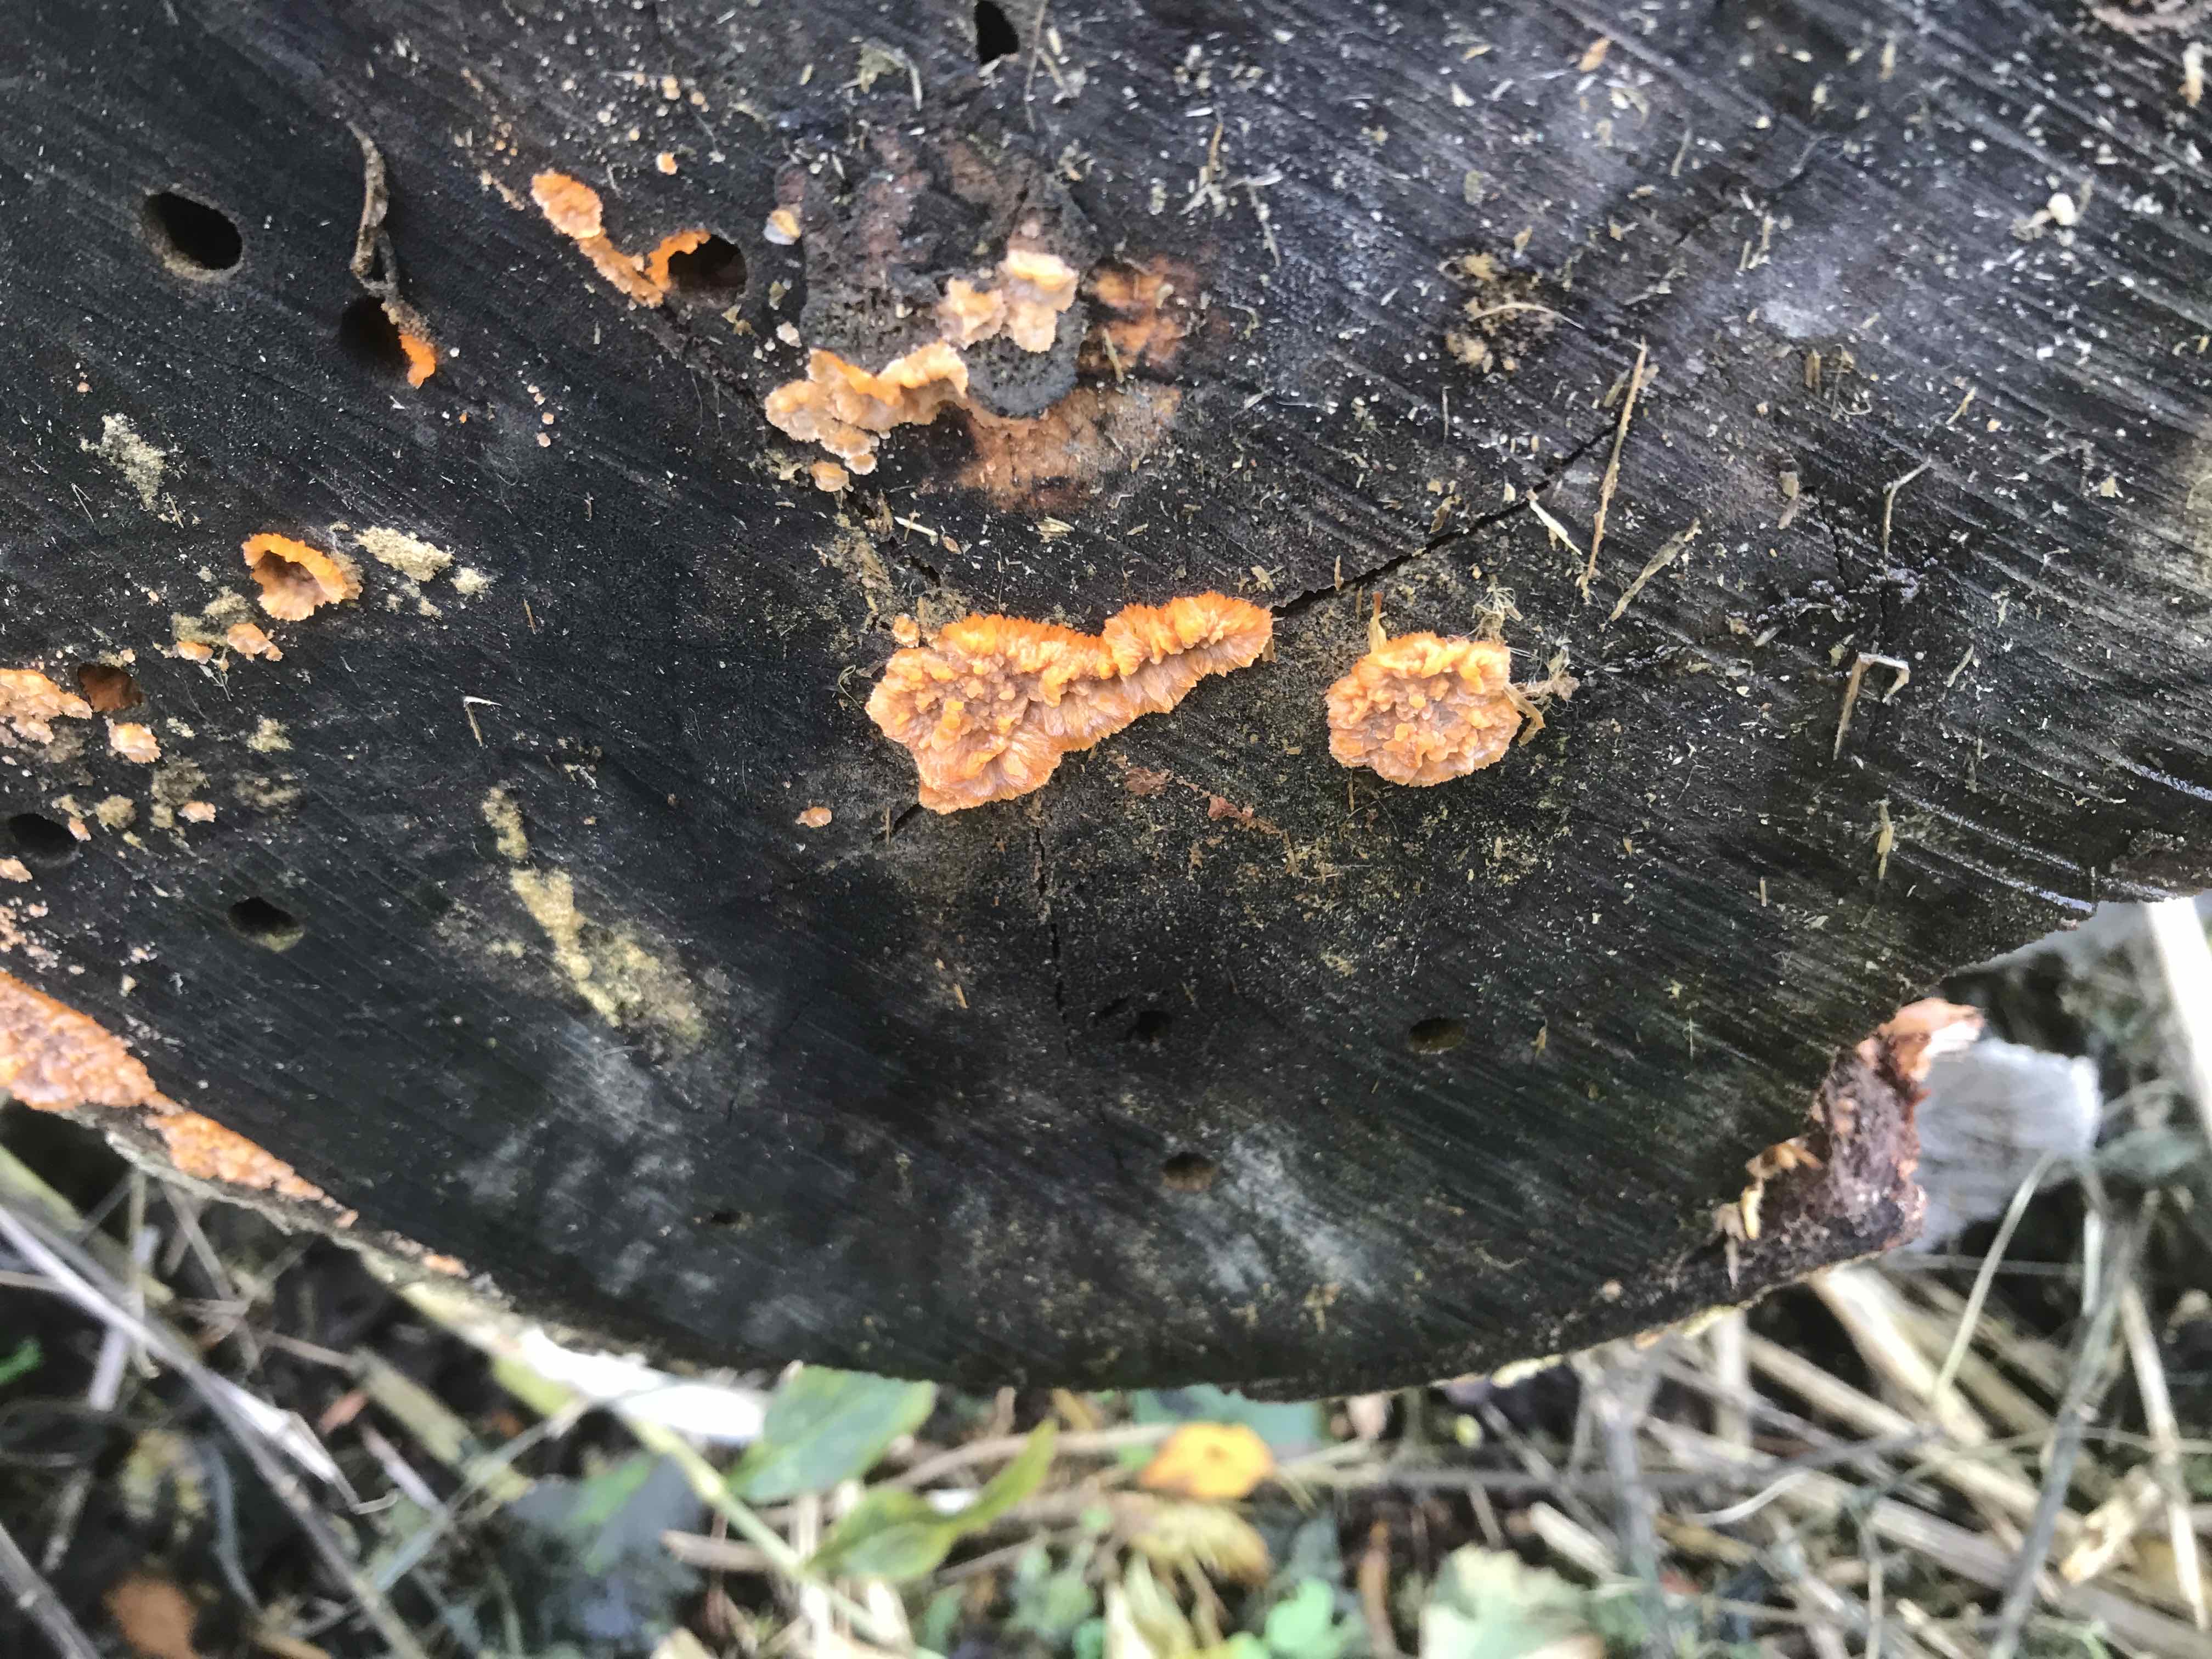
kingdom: Fungi
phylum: Basidiomycota
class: Agaricomycetes
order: Polyporales
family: Meruliaceae
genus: Phlebia
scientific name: Phlebia radiata
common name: stråle-åresvamp
